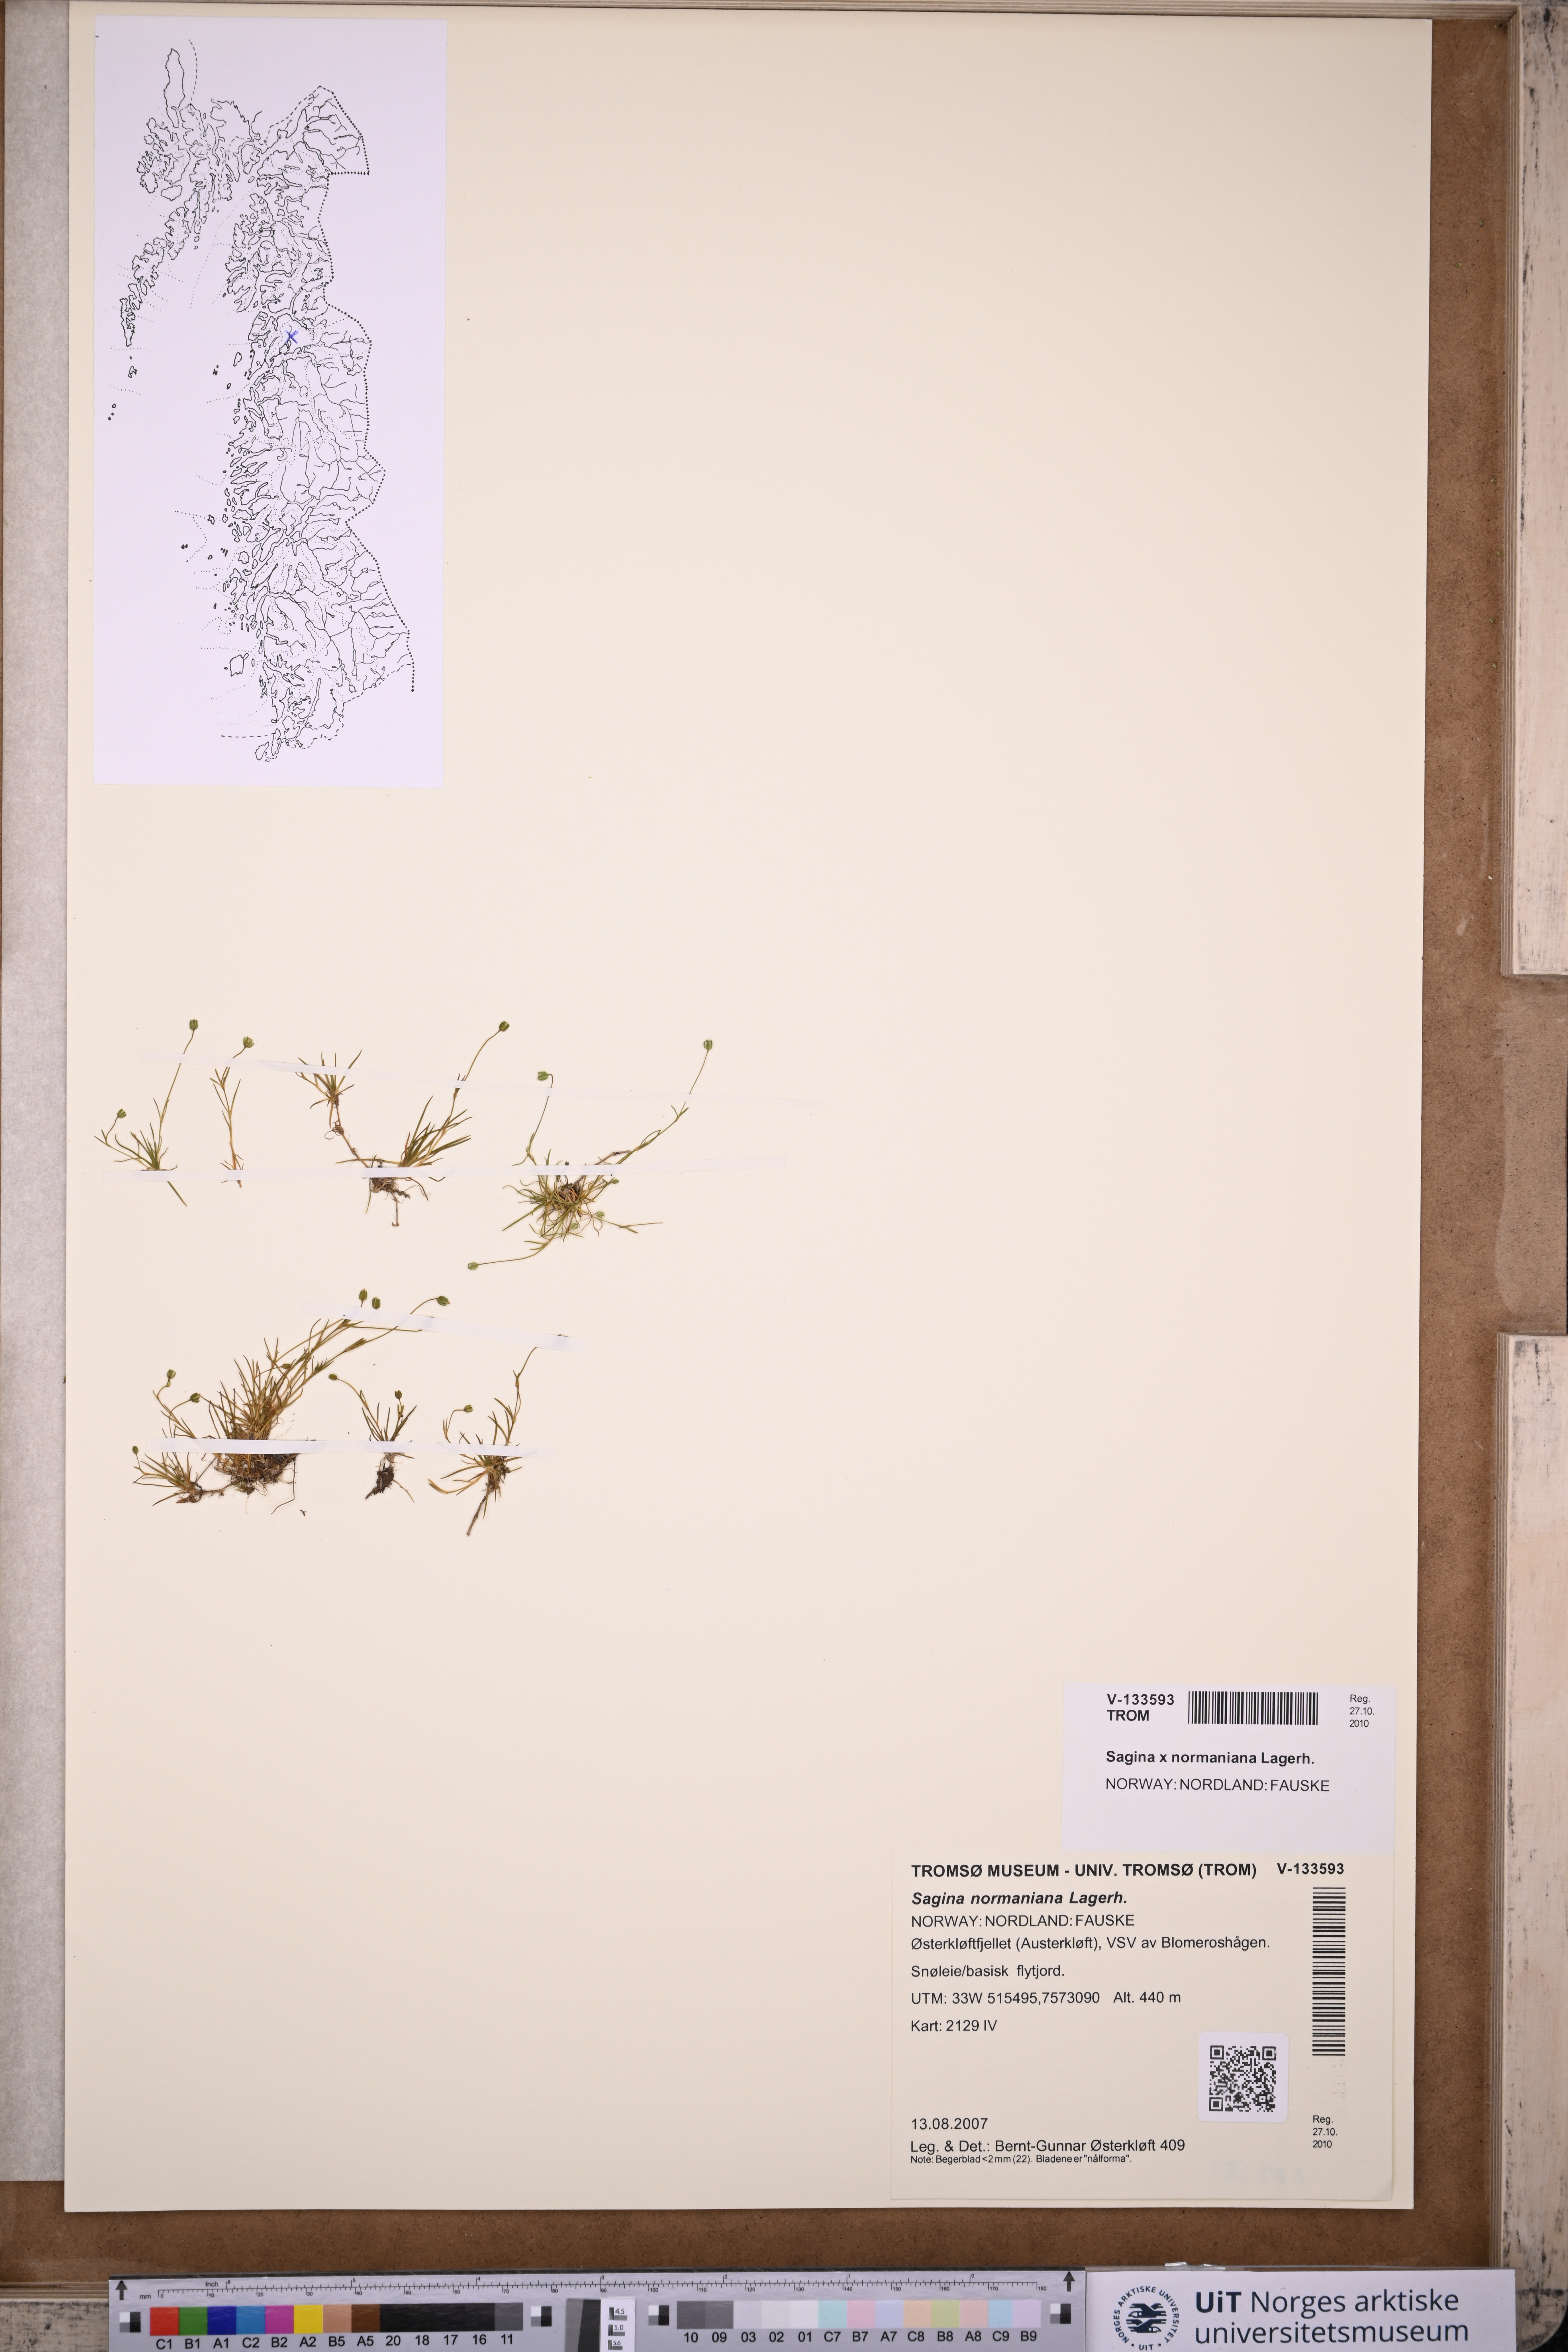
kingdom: Plantae
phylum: Tracheophyta
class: Magnoliopsida
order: Caryophyllales
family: Caryophyllaceae
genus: Sagina
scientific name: Sagina media
